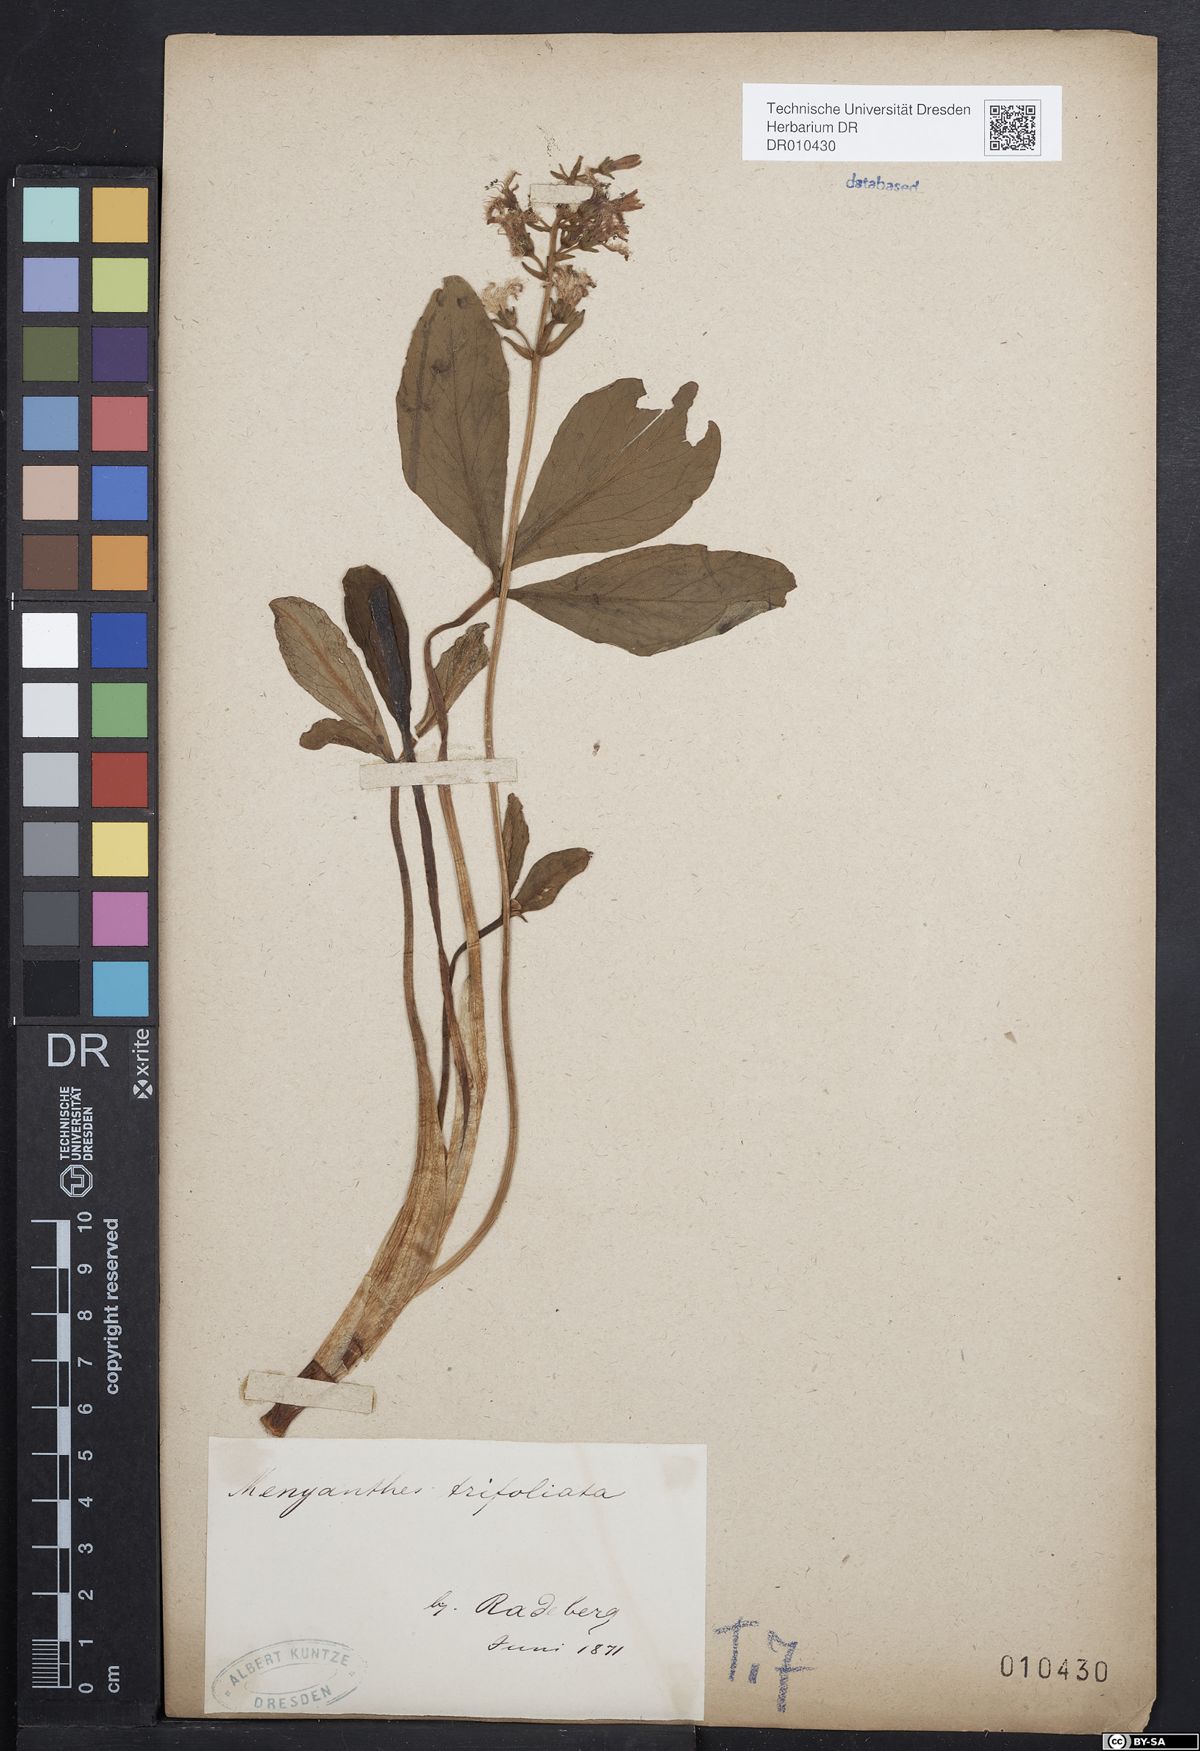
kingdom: Plantae
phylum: Tracheophyta
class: Magnoliopsida
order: Asterales
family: Menyanthaceae
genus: Menyanthes
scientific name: Menyanthes trifoliata
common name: Bogbean
